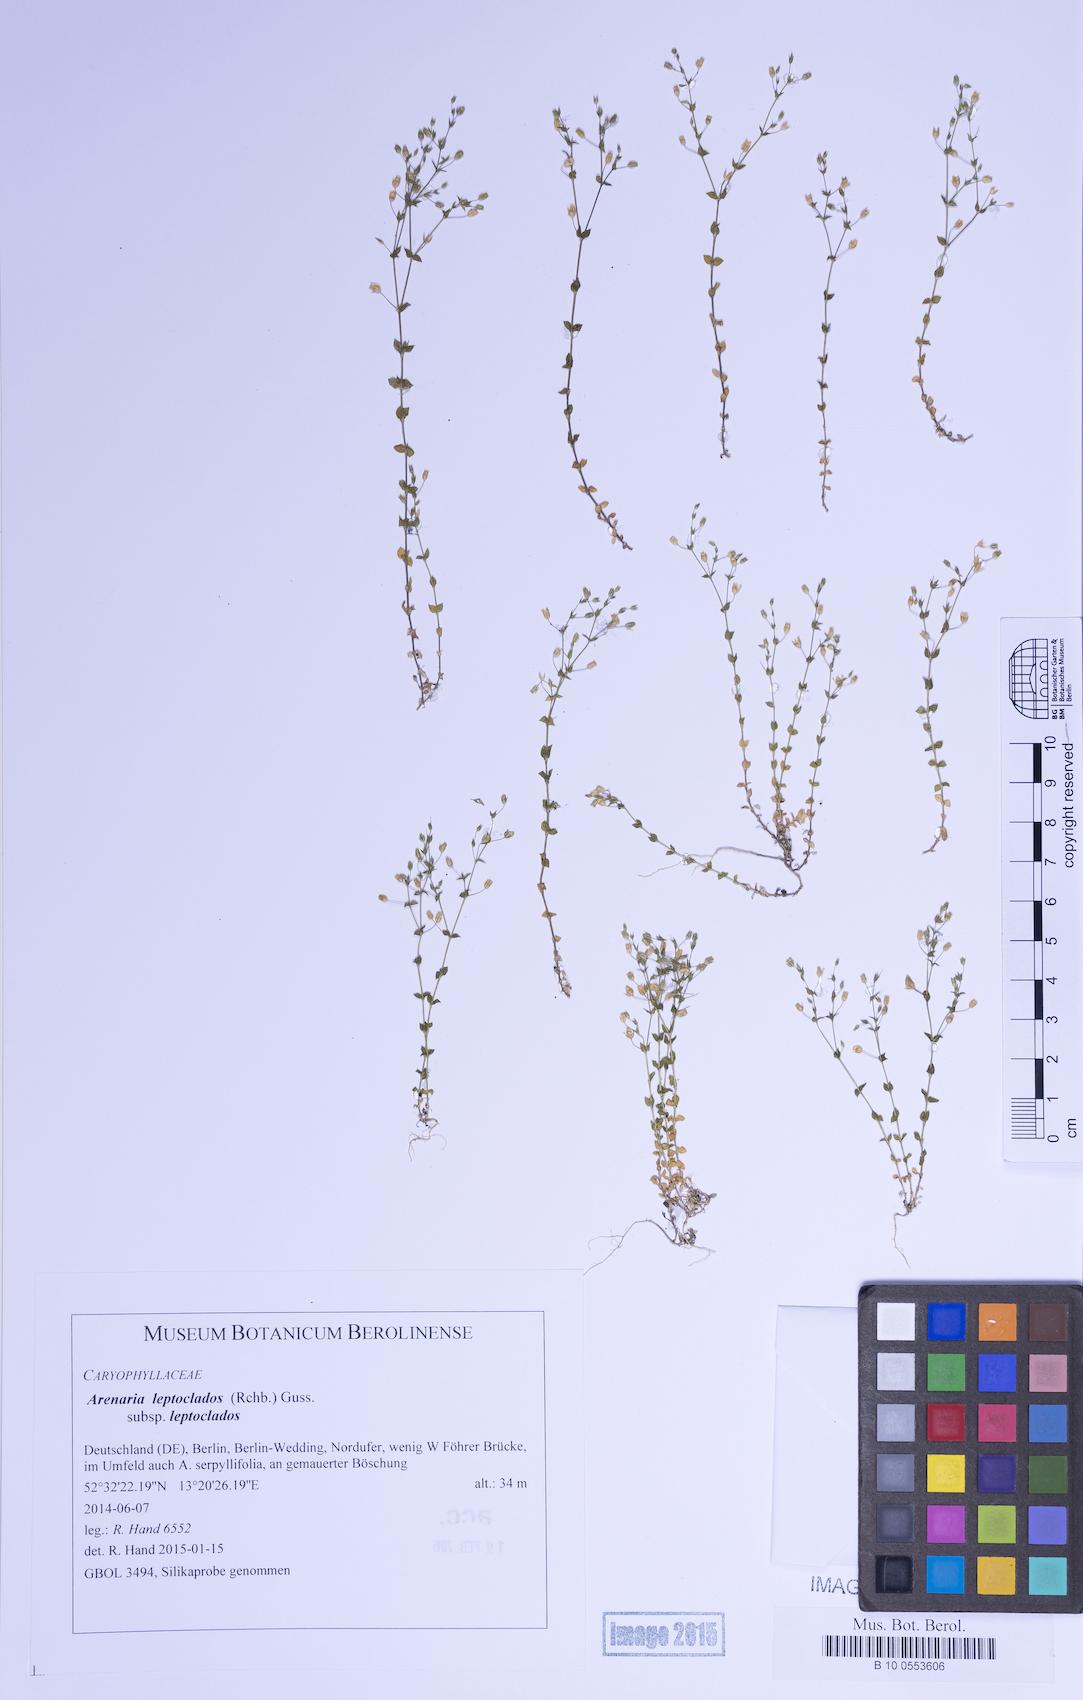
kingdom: Plantae
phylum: Tracheophyta
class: Magnoliopsida
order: Caryophyllales
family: Caryophyllaceae
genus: Arenaria
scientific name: Arenaria leptoclados
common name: Thyme-leaved sandwort
